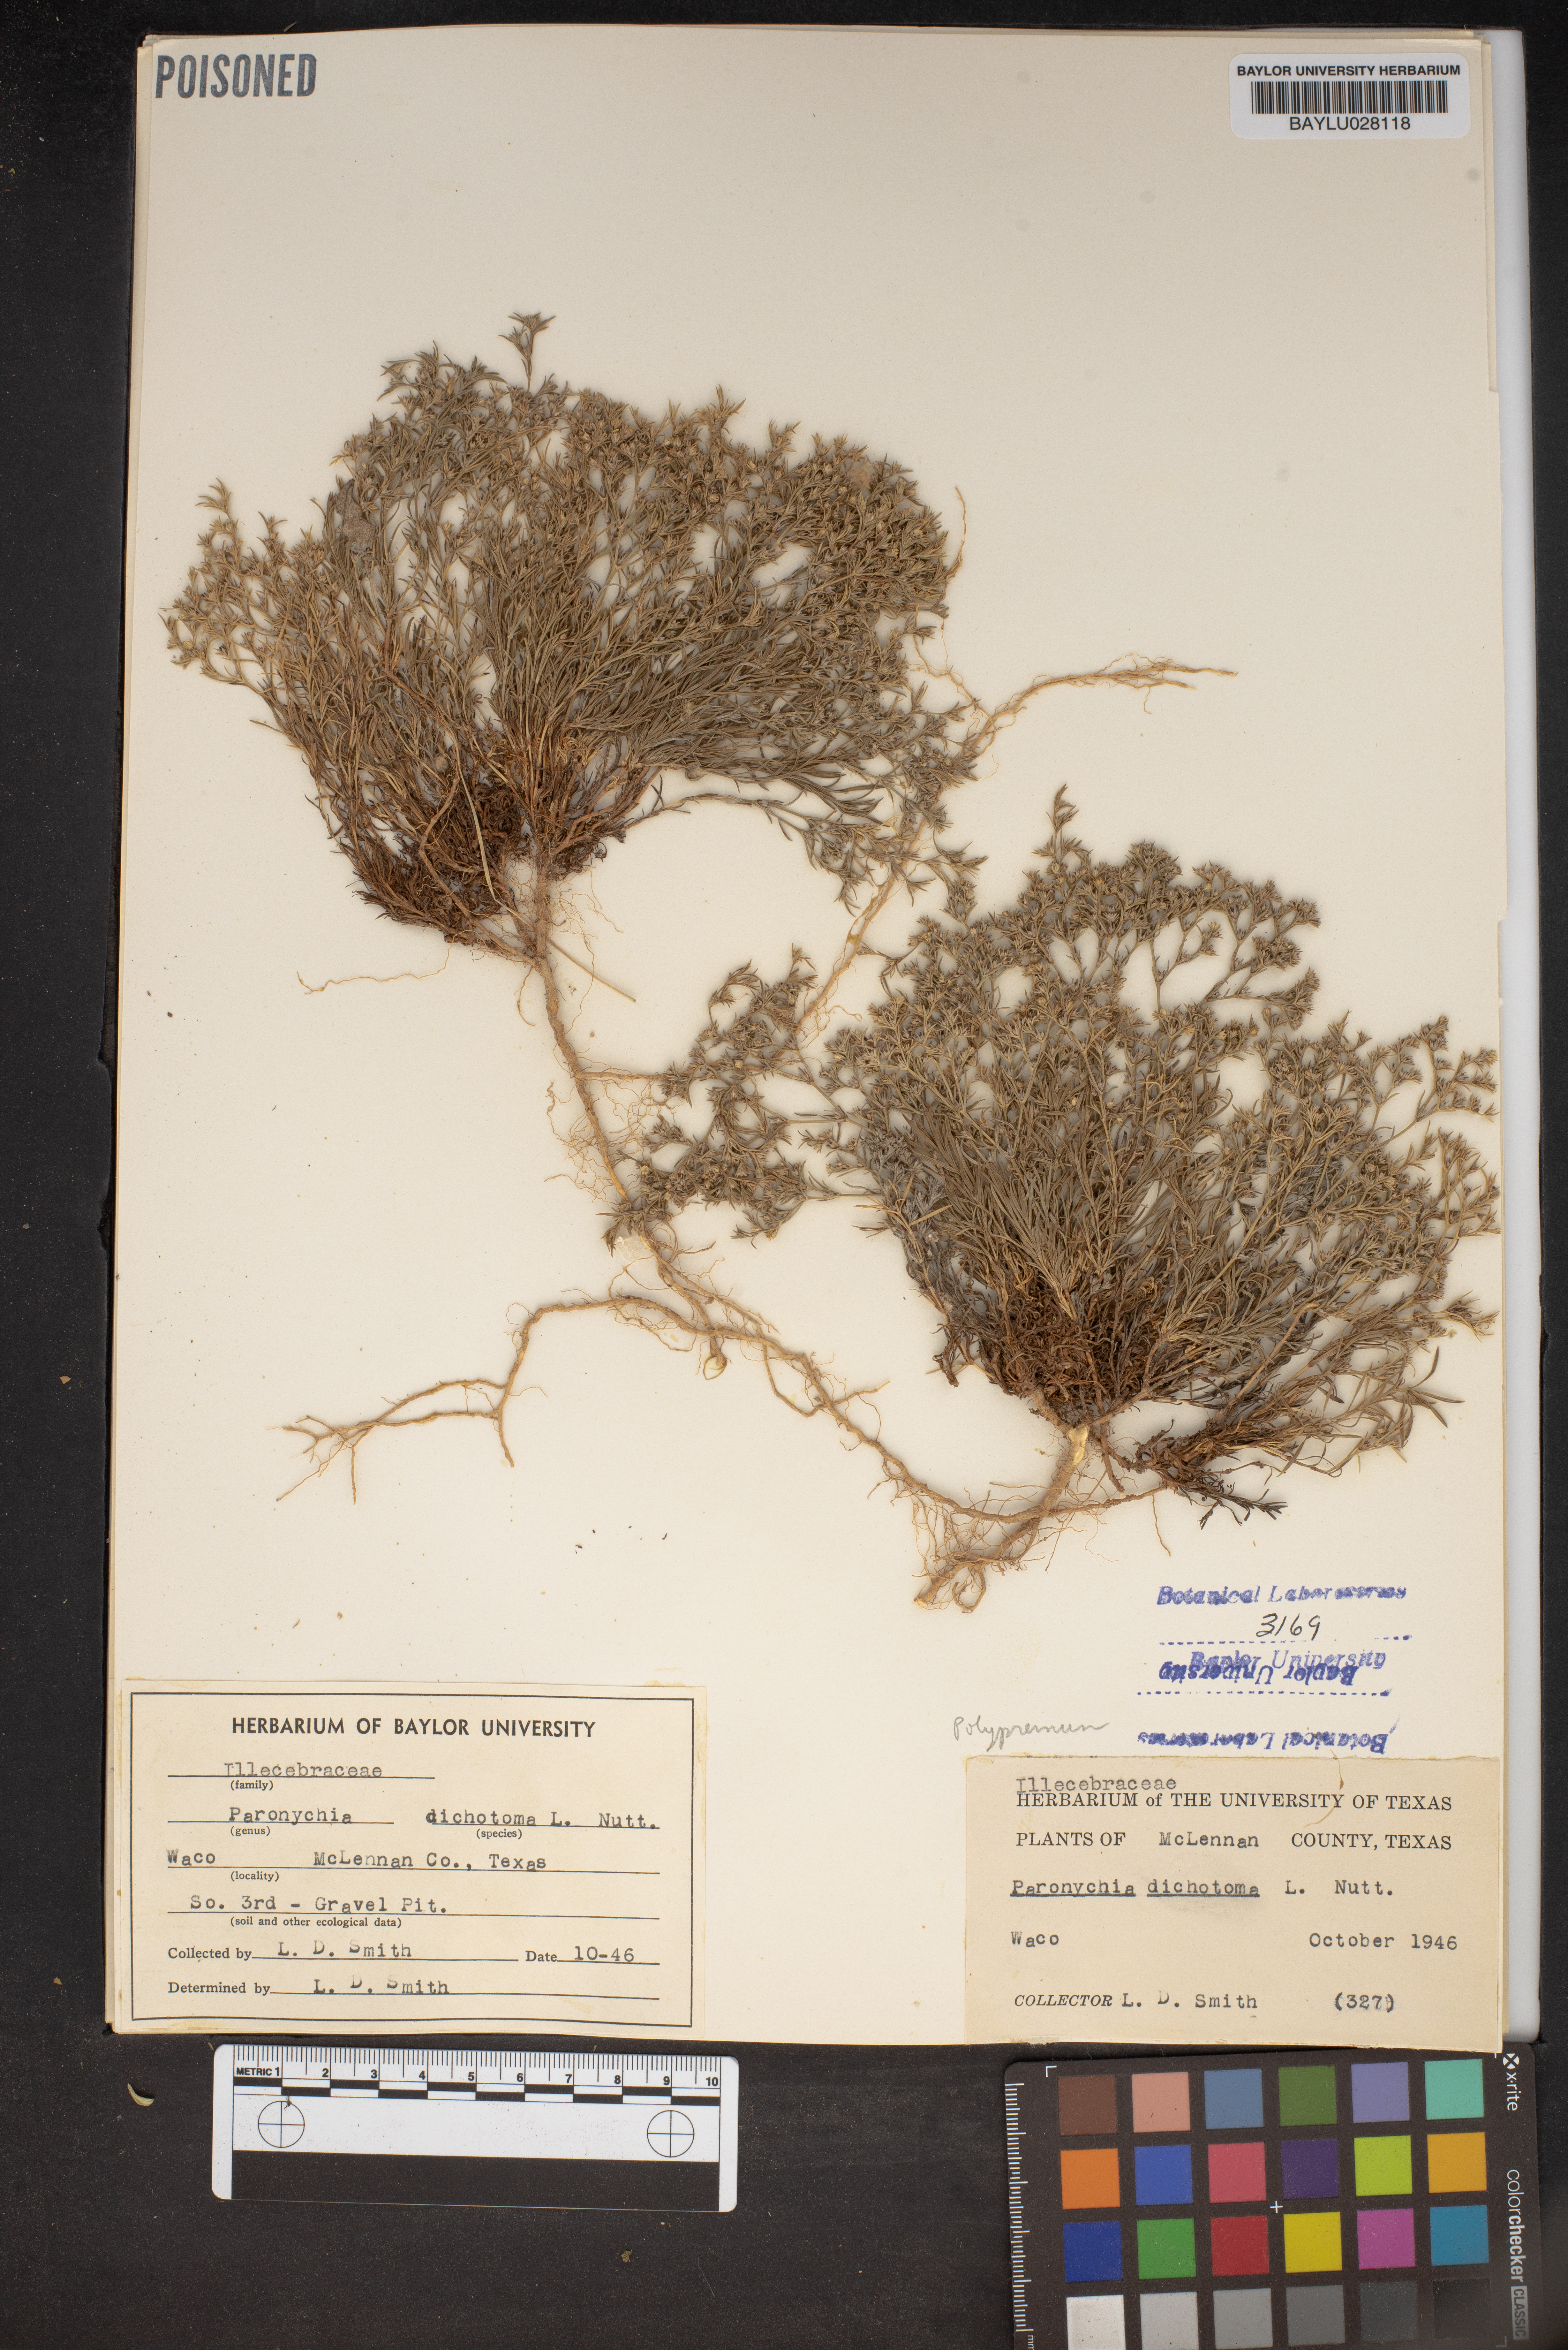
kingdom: Plantae
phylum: Tracheophyta
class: Magnoliopsida
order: Caryophyllales
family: Caryophyllaceae
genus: Paronychia
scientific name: Paronychia canadensis
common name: Canada forked nailwort
